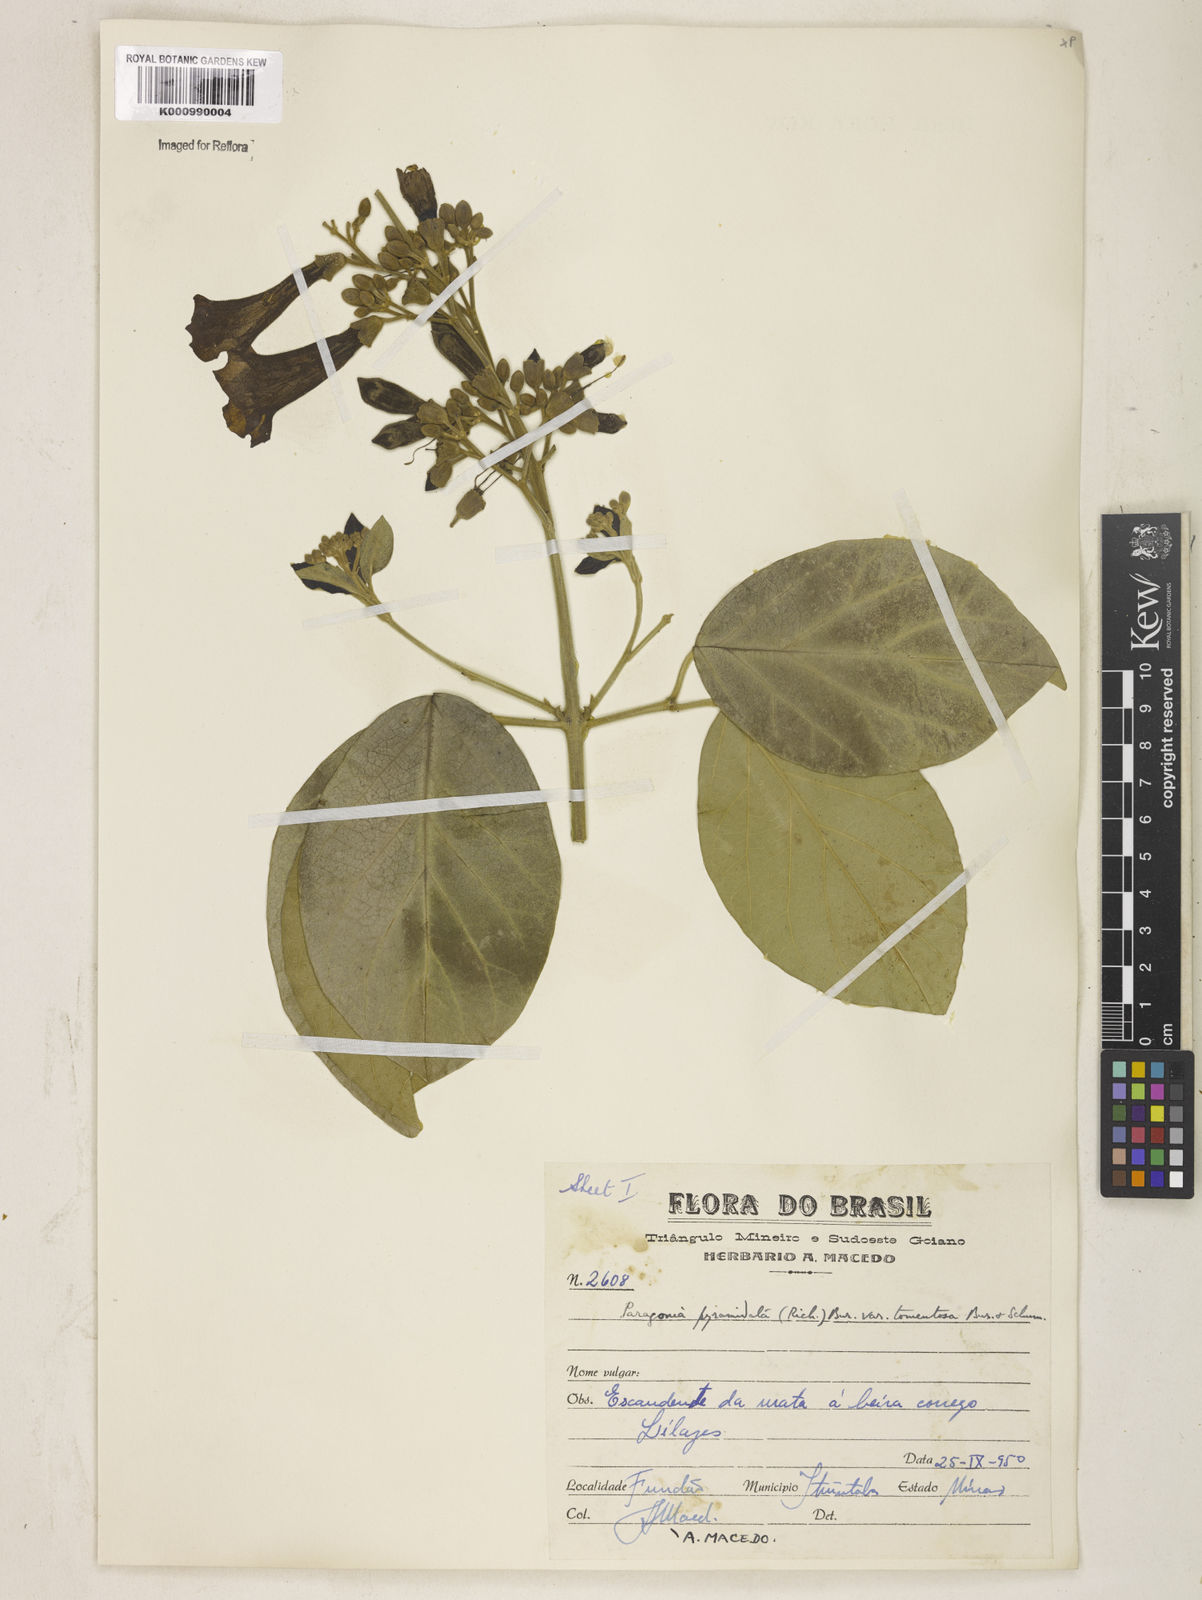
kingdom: Plantae
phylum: Tracheophyta
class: Magnoliopsida
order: Lamiales
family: Bignoniaceae
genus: Tanaecium
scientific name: Tanaecium pyramidatum
